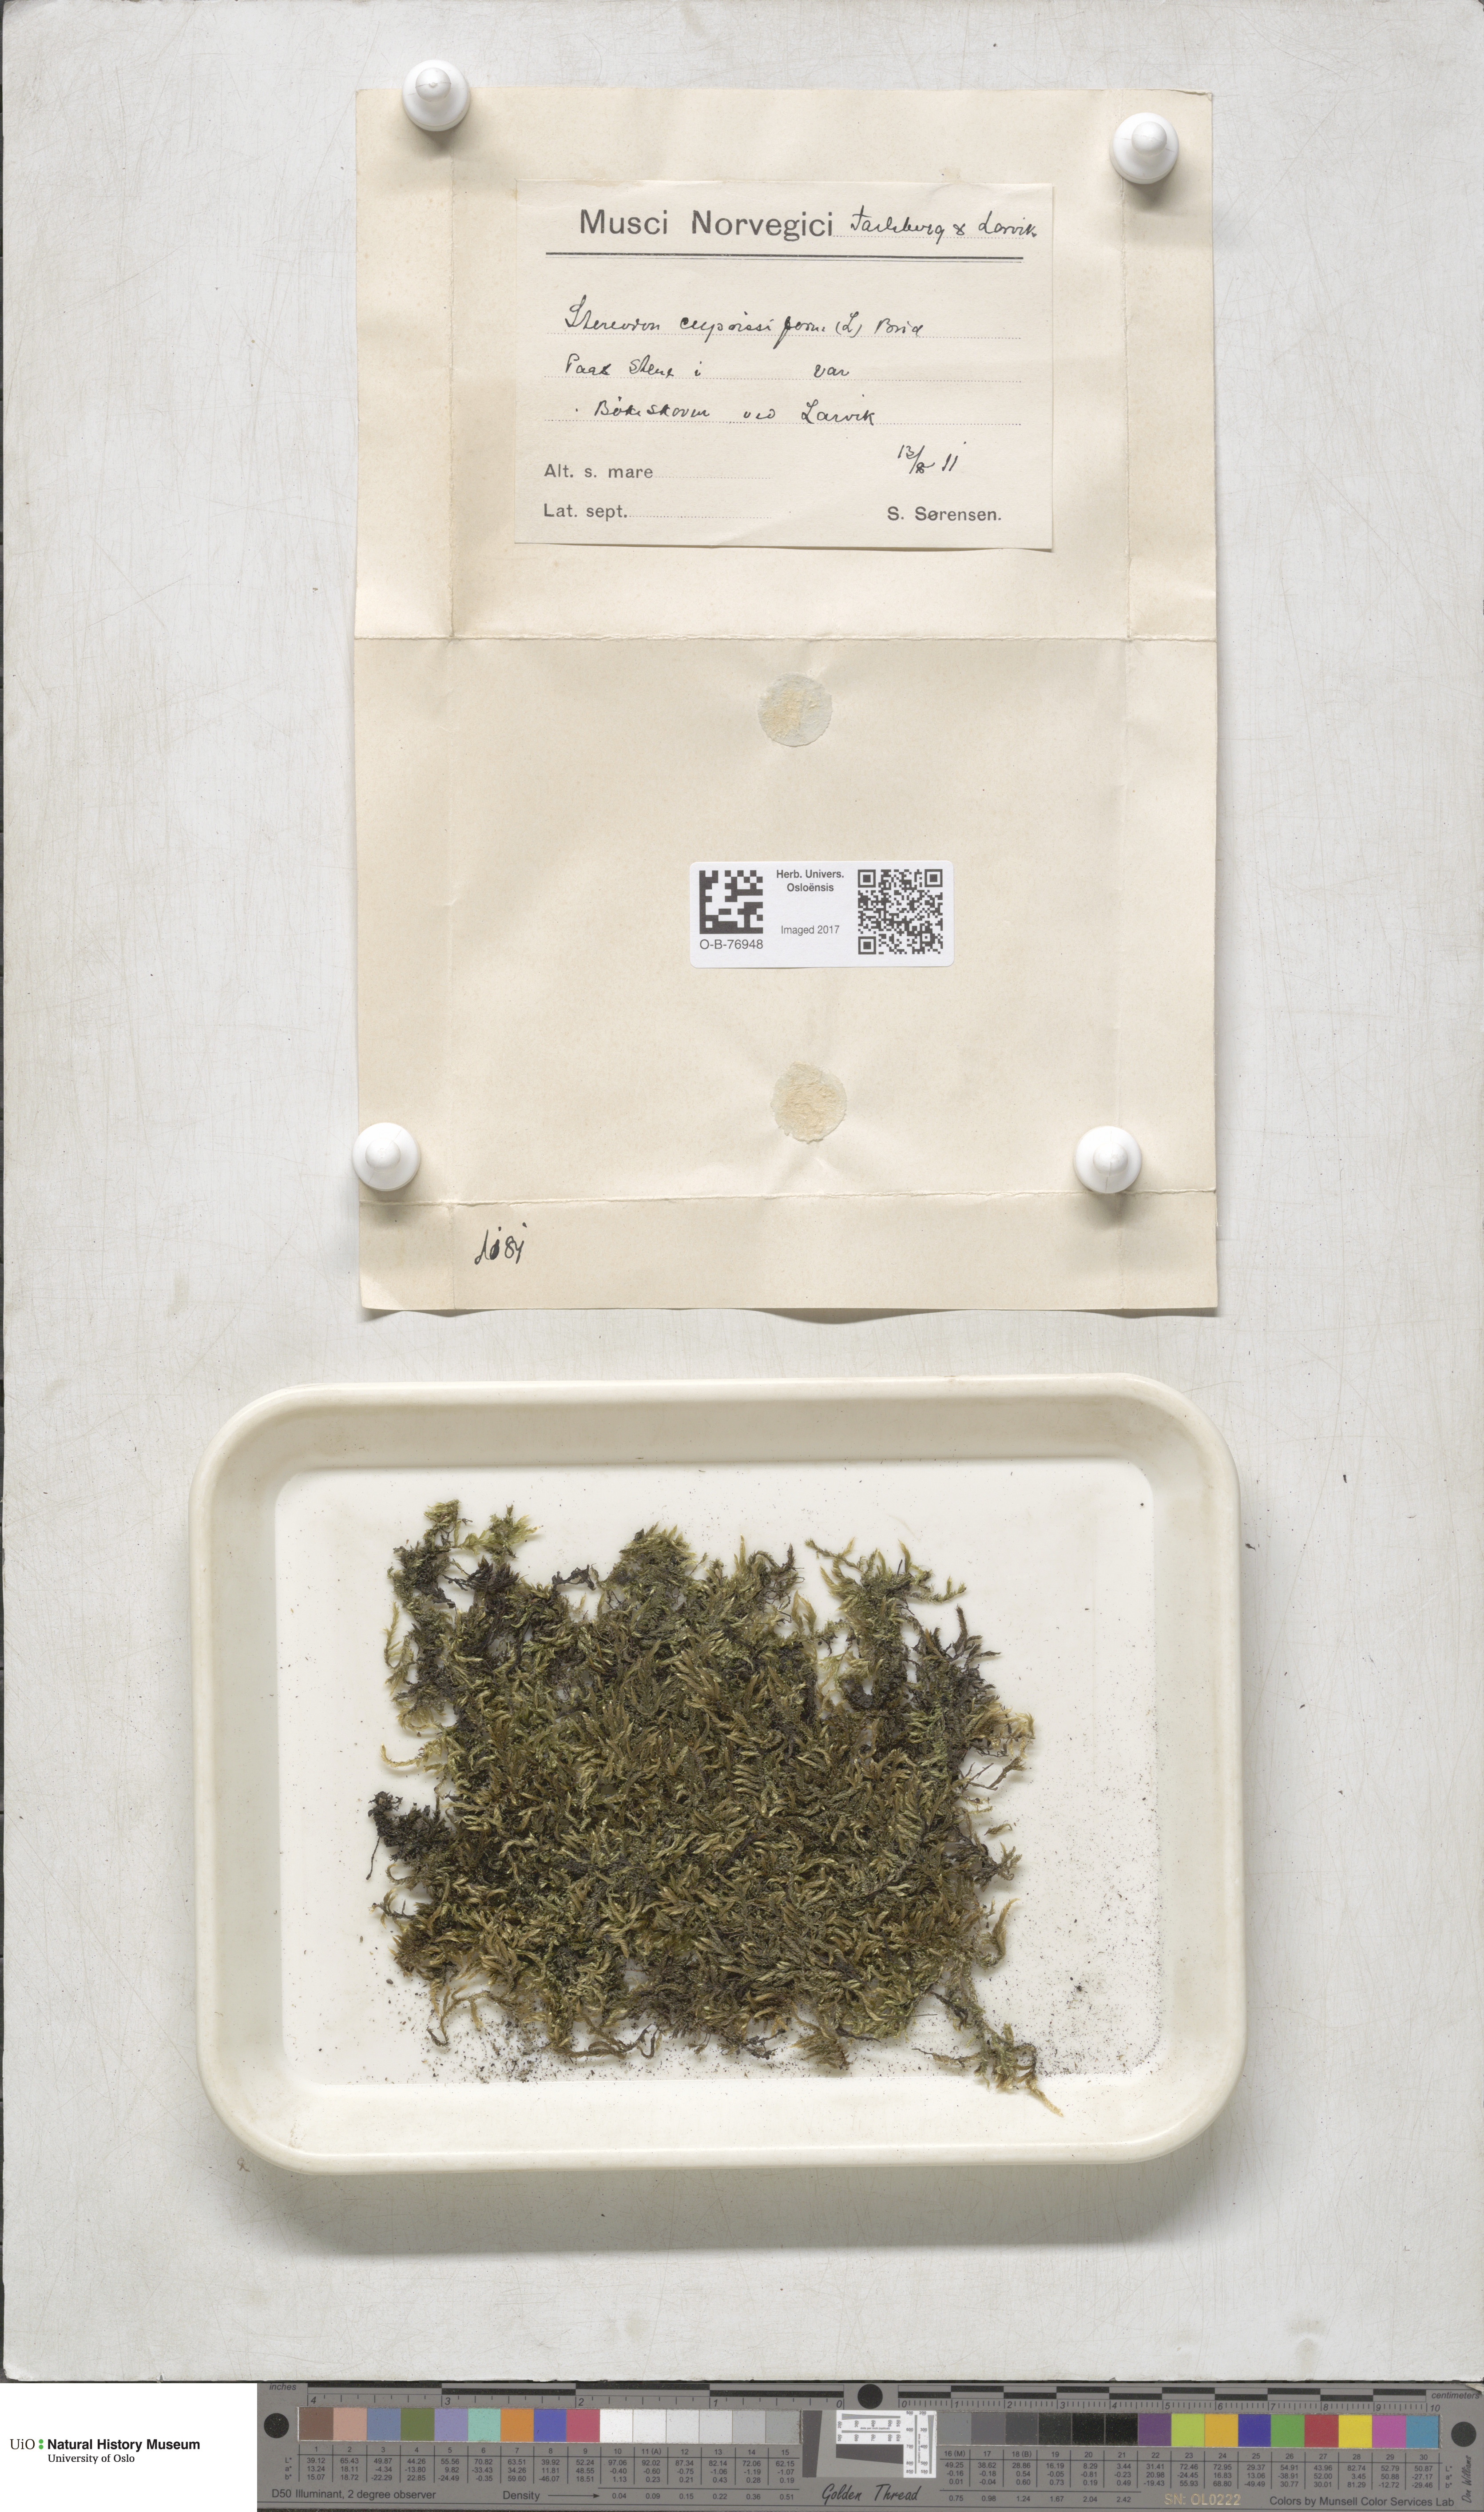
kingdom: Plantae
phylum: Bryophyta
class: Bryopsida
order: Hypnales
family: Hypnaceae
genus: Hypnum
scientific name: Hypnum cupressiforme
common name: Cypress-leaved plait-moss
